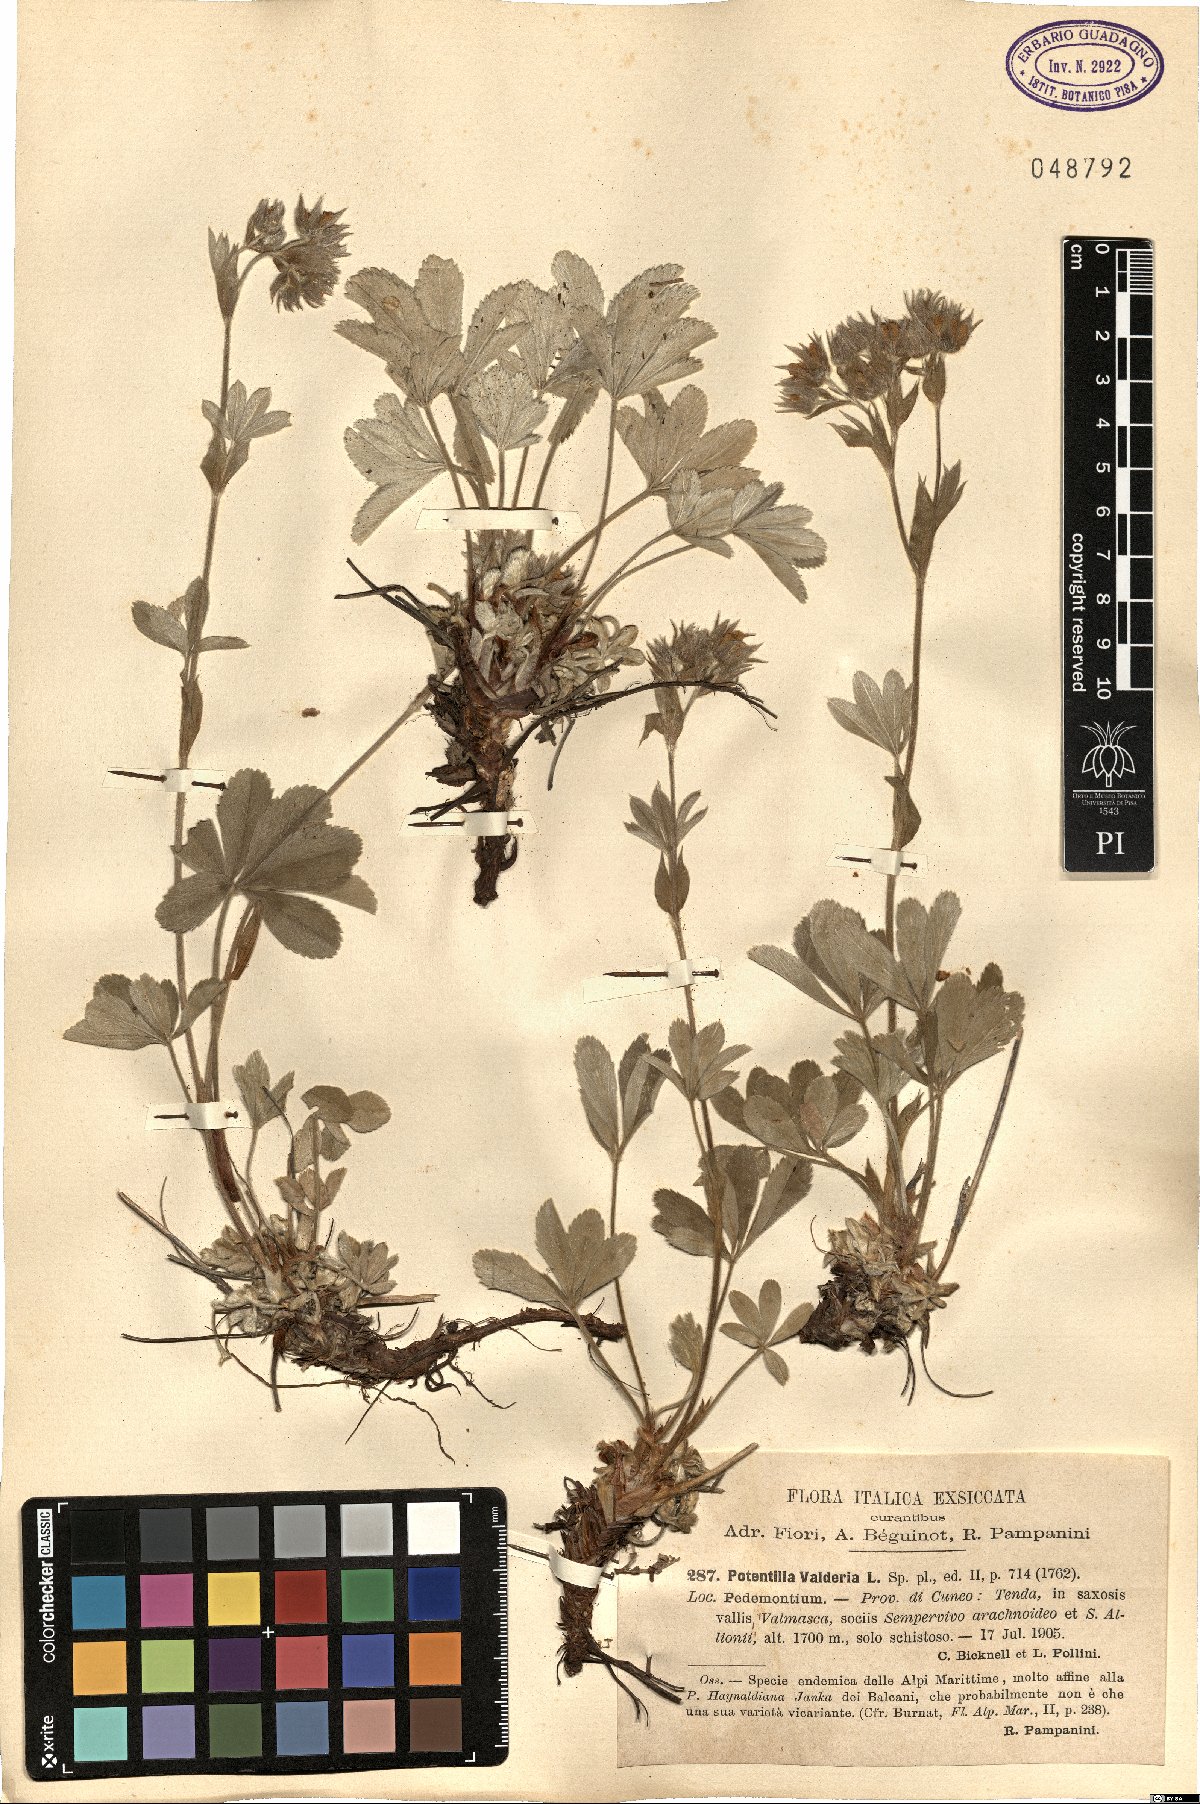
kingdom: Plantae
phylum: Tracheophyta
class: Magnoliopsida
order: Rosales
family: Rosaceae
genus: Potentilla
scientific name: Potentilla valderia
